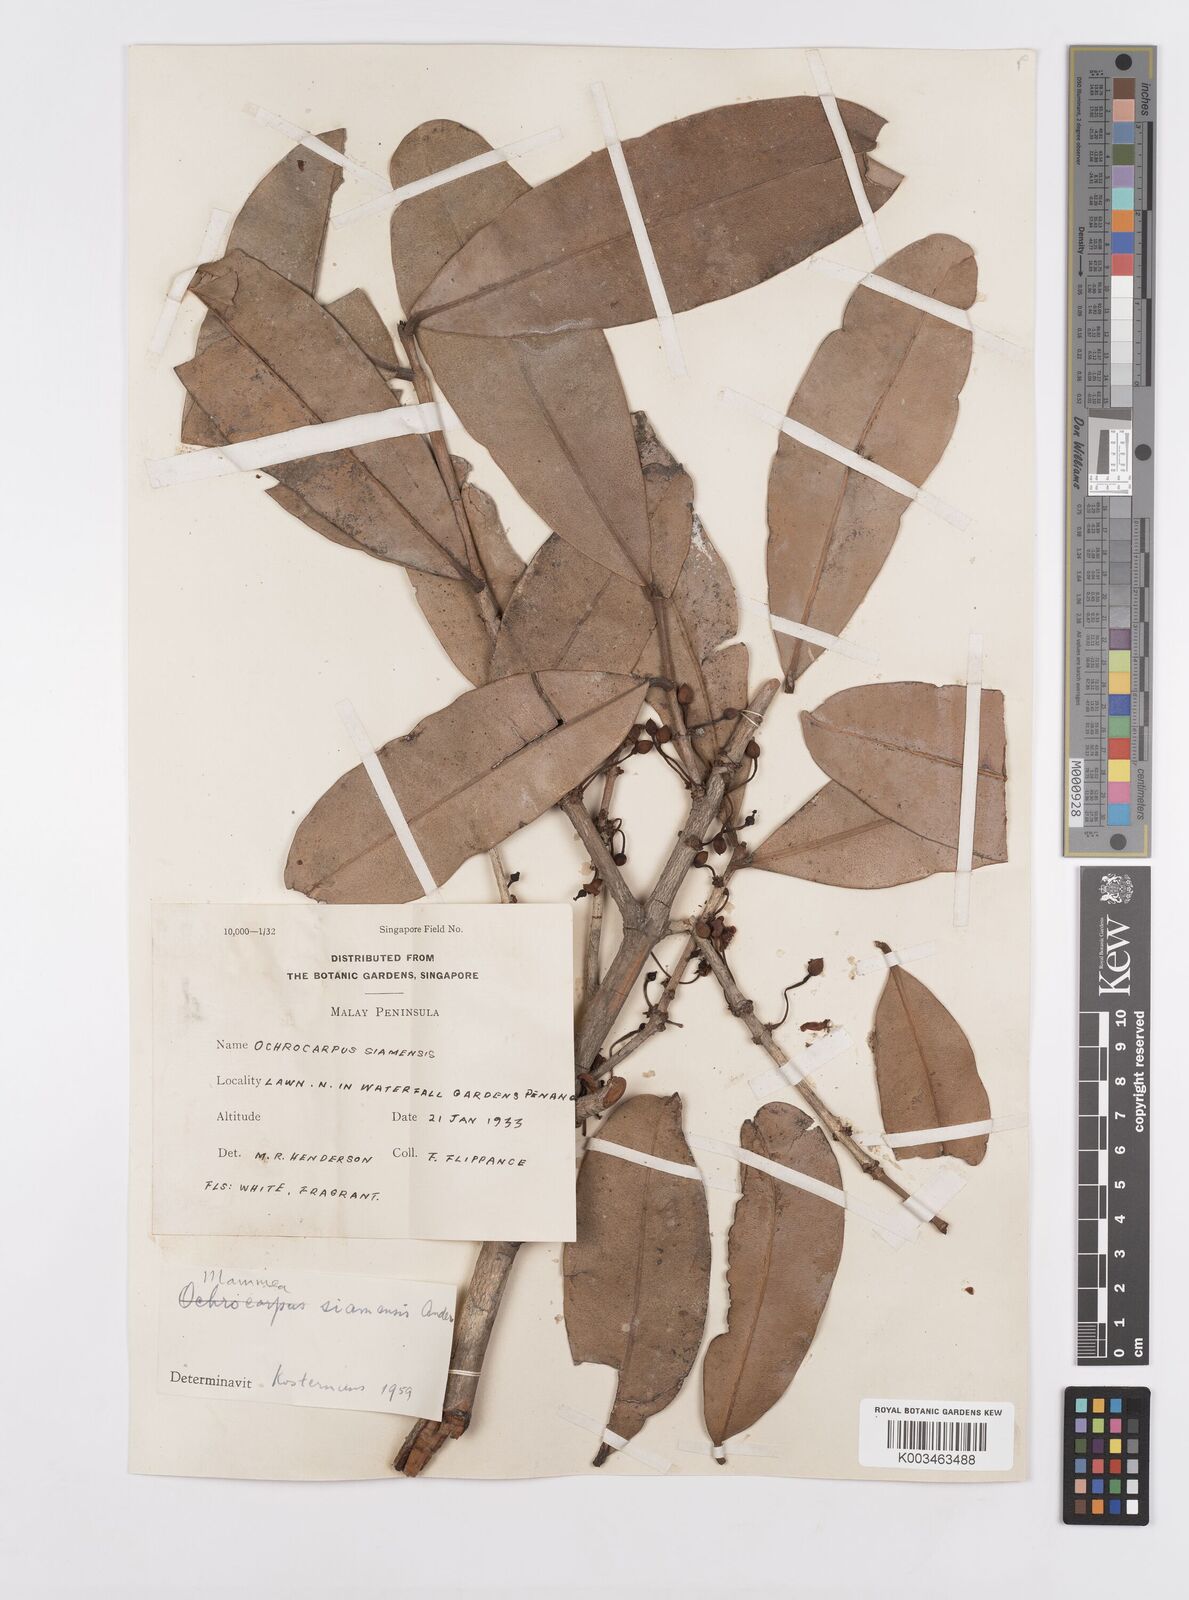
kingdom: Plantae
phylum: Tracheophyta
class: Magnoliopsida
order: Malpighiales
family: Calophyllaceae
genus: Mammea
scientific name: Mammea siamensis
